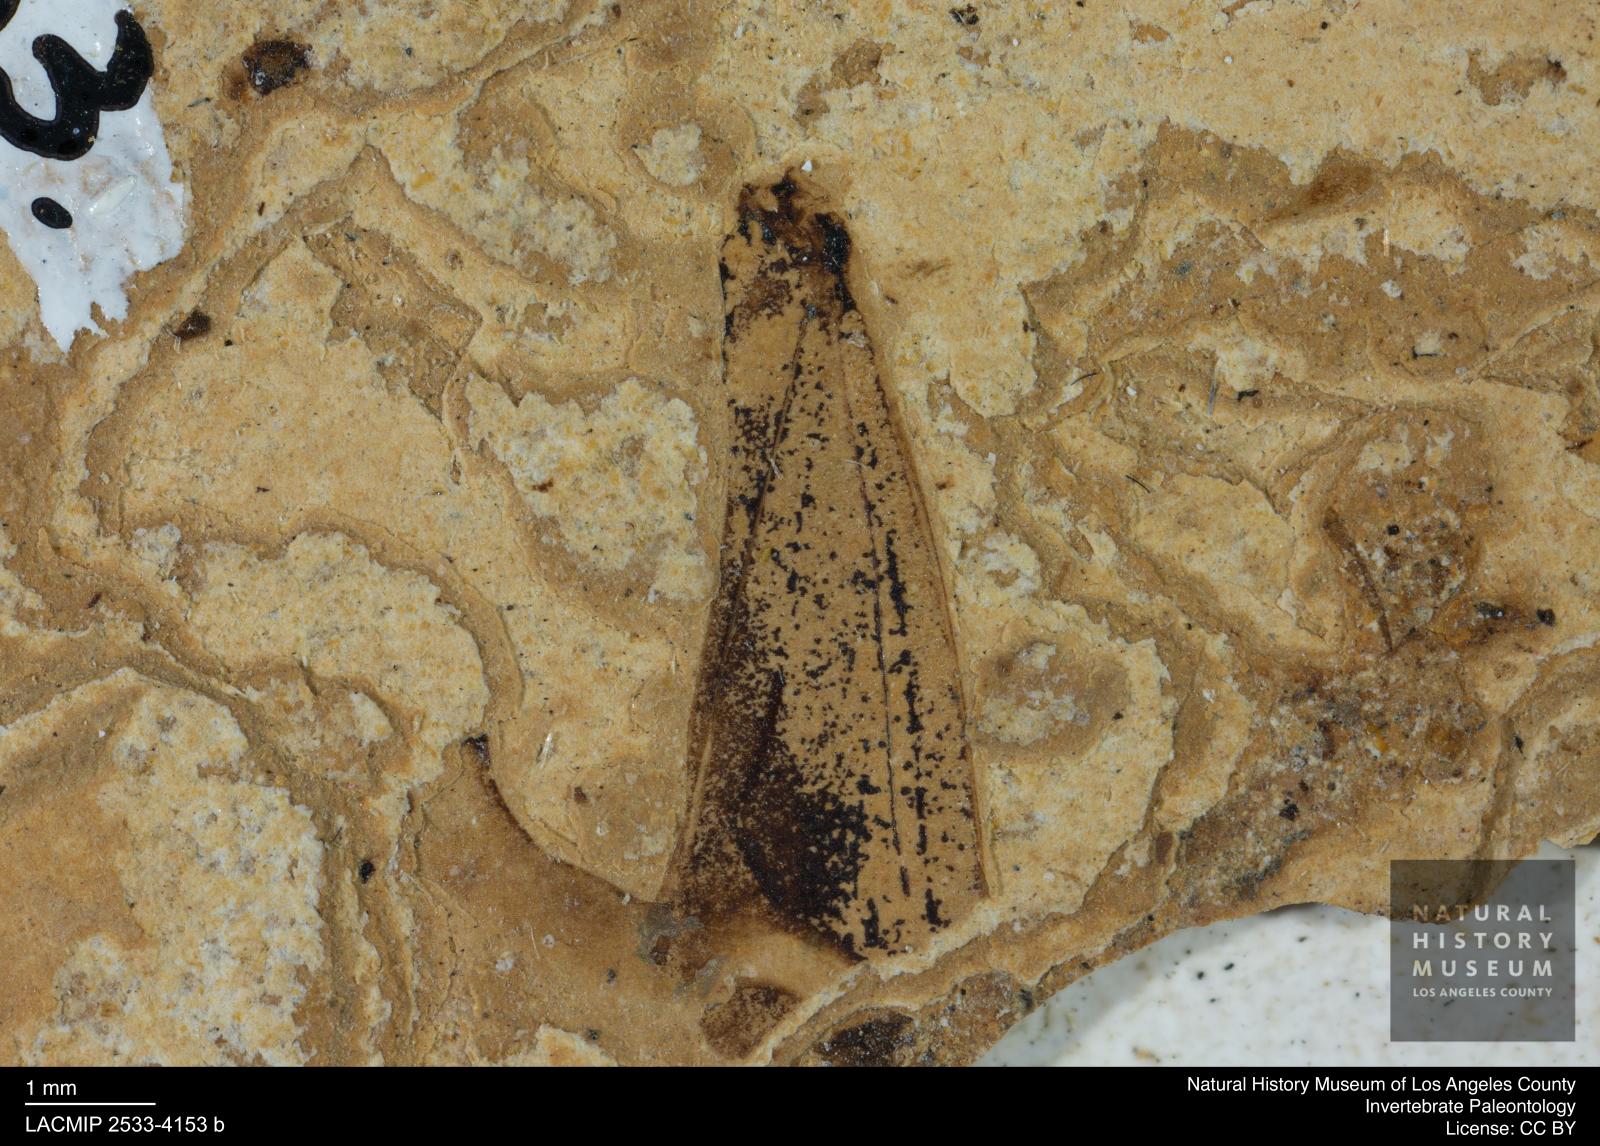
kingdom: Animalia
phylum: Arthropoda
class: Insecta
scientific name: Insecta
